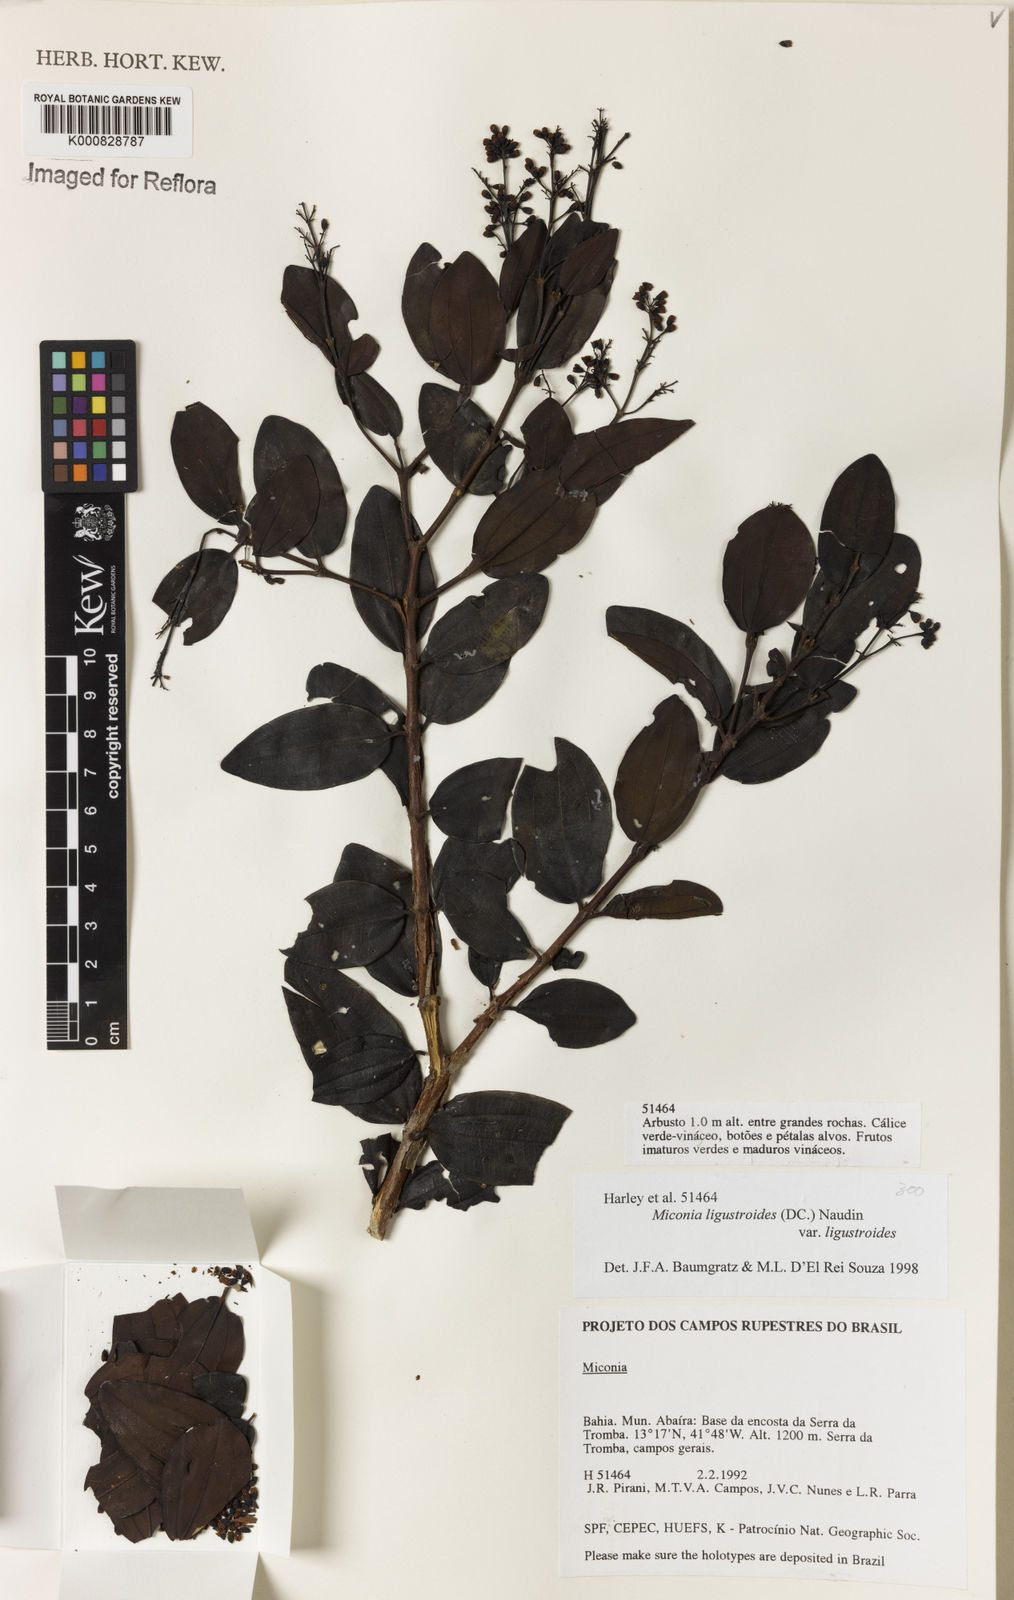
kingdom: Plantae
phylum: Tracheophyta
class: Magnoliopsida
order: Myrtales
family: Melastomataceae
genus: Miconia
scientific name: Miconia ligustroides
